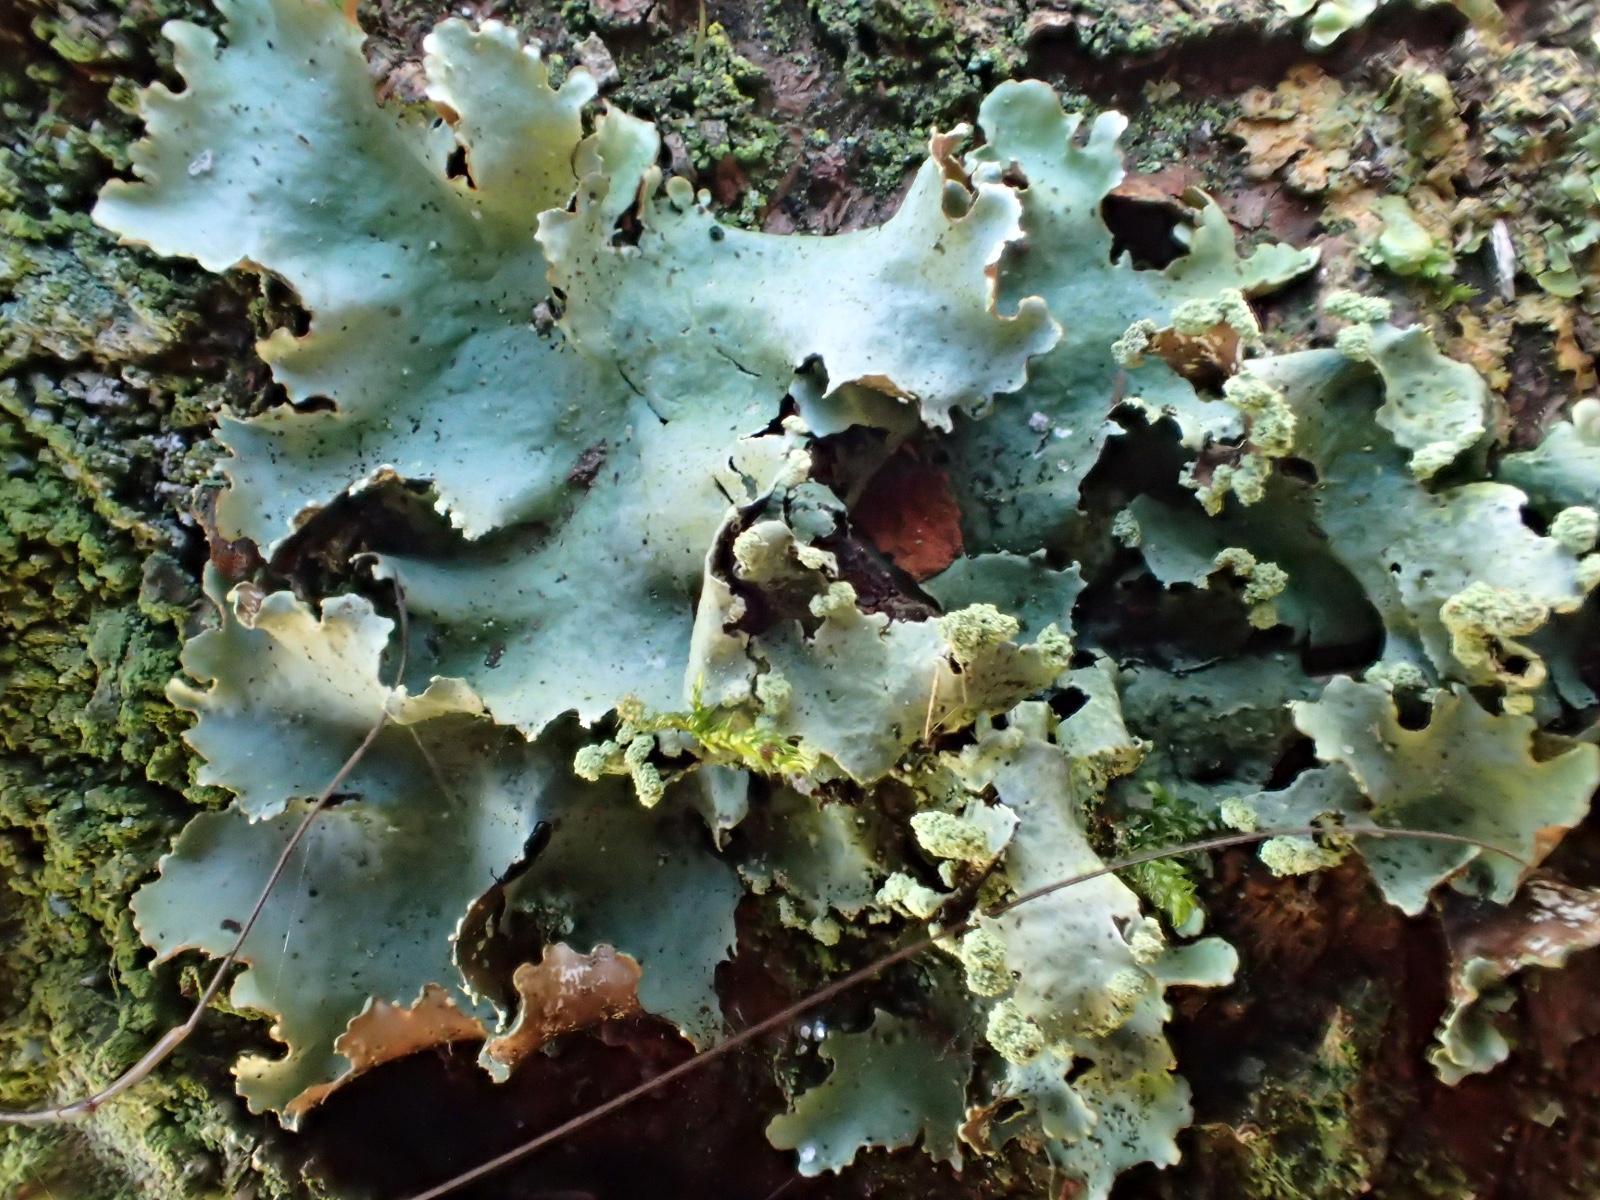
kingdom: Fungi
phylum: Ascomycota
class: Lecanoromycetes
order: Lecanorales
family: Parmeliaceae
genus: Platismatia
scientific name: Platismatia glauca
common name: blågrå papirlav
